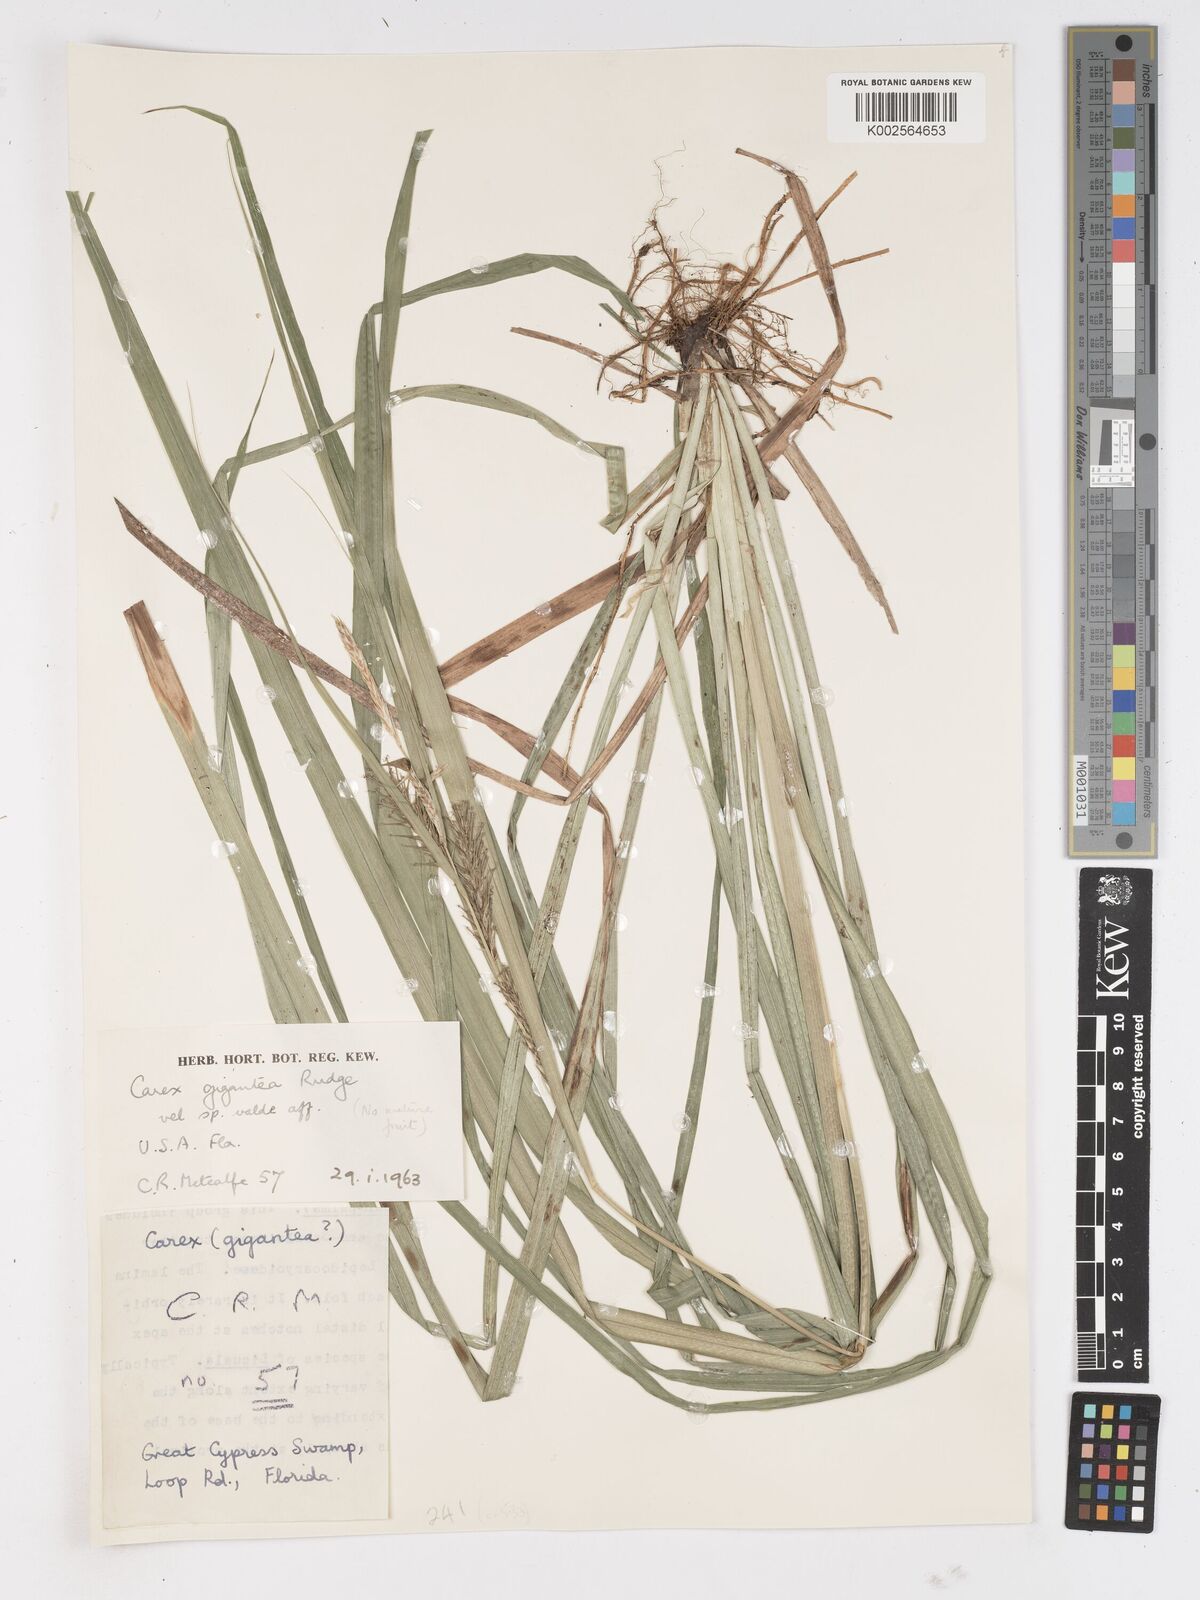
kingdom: Plantae
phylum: Tracheophyta
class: Liliopsida
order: Poales
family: Cyperaceae
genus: Carex
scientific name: Carex gigantea
